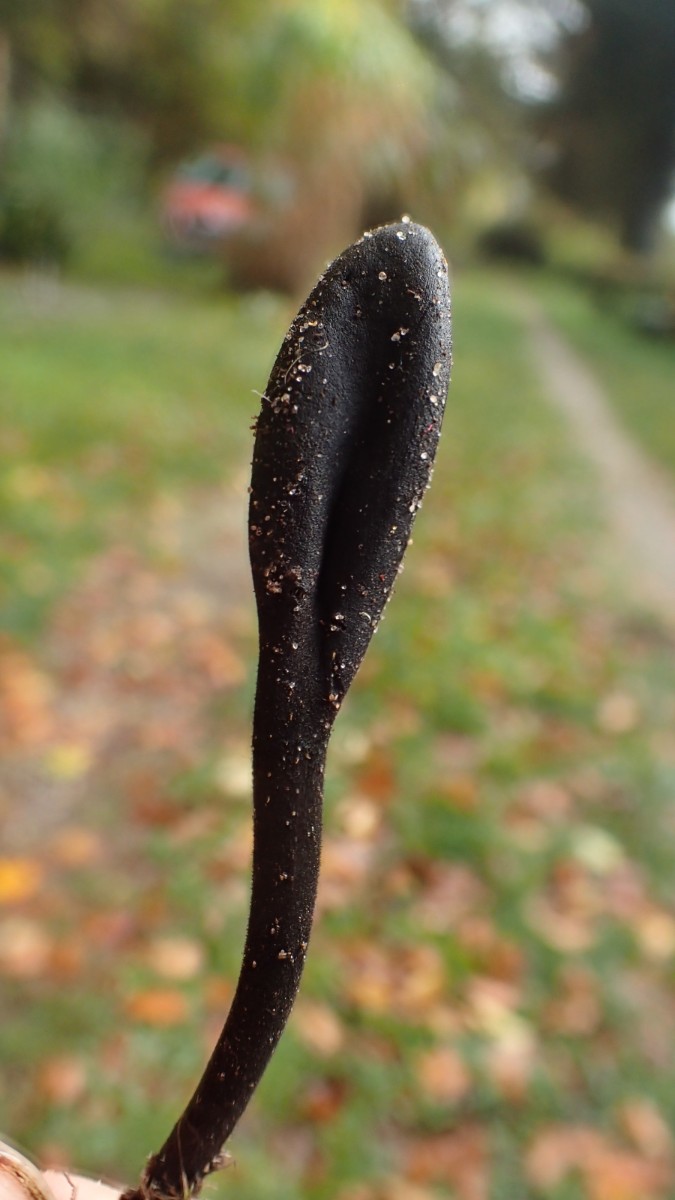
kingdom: Fungi
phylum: Ascomycota
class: Geoglossomycetes
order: Geoglossales
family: Geoglossaceae
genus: Trichoglossum
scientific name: Trichoglossum hirsutum
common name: håret jordtunge
